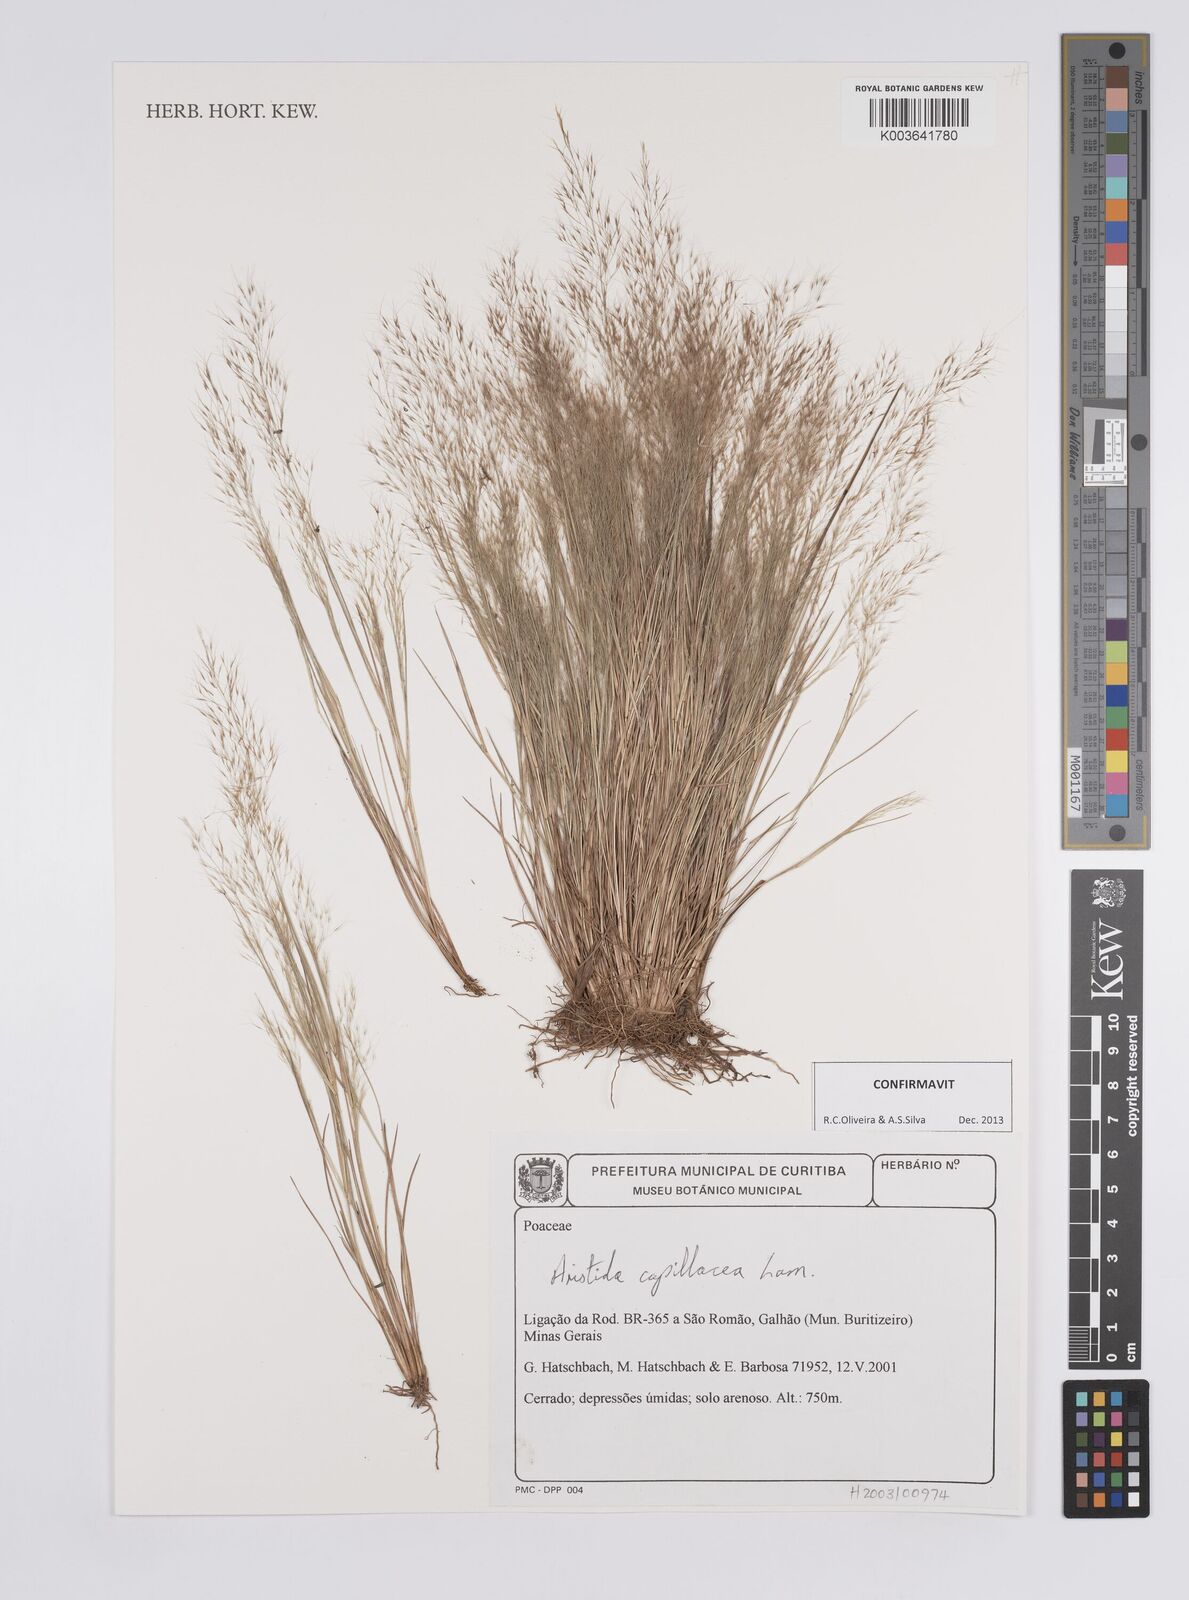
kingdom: Plantae
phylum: Tracheophyta
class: Liliopsida
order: Poales
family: Poaceae
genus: Aristida
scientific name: Aristida capillacea
